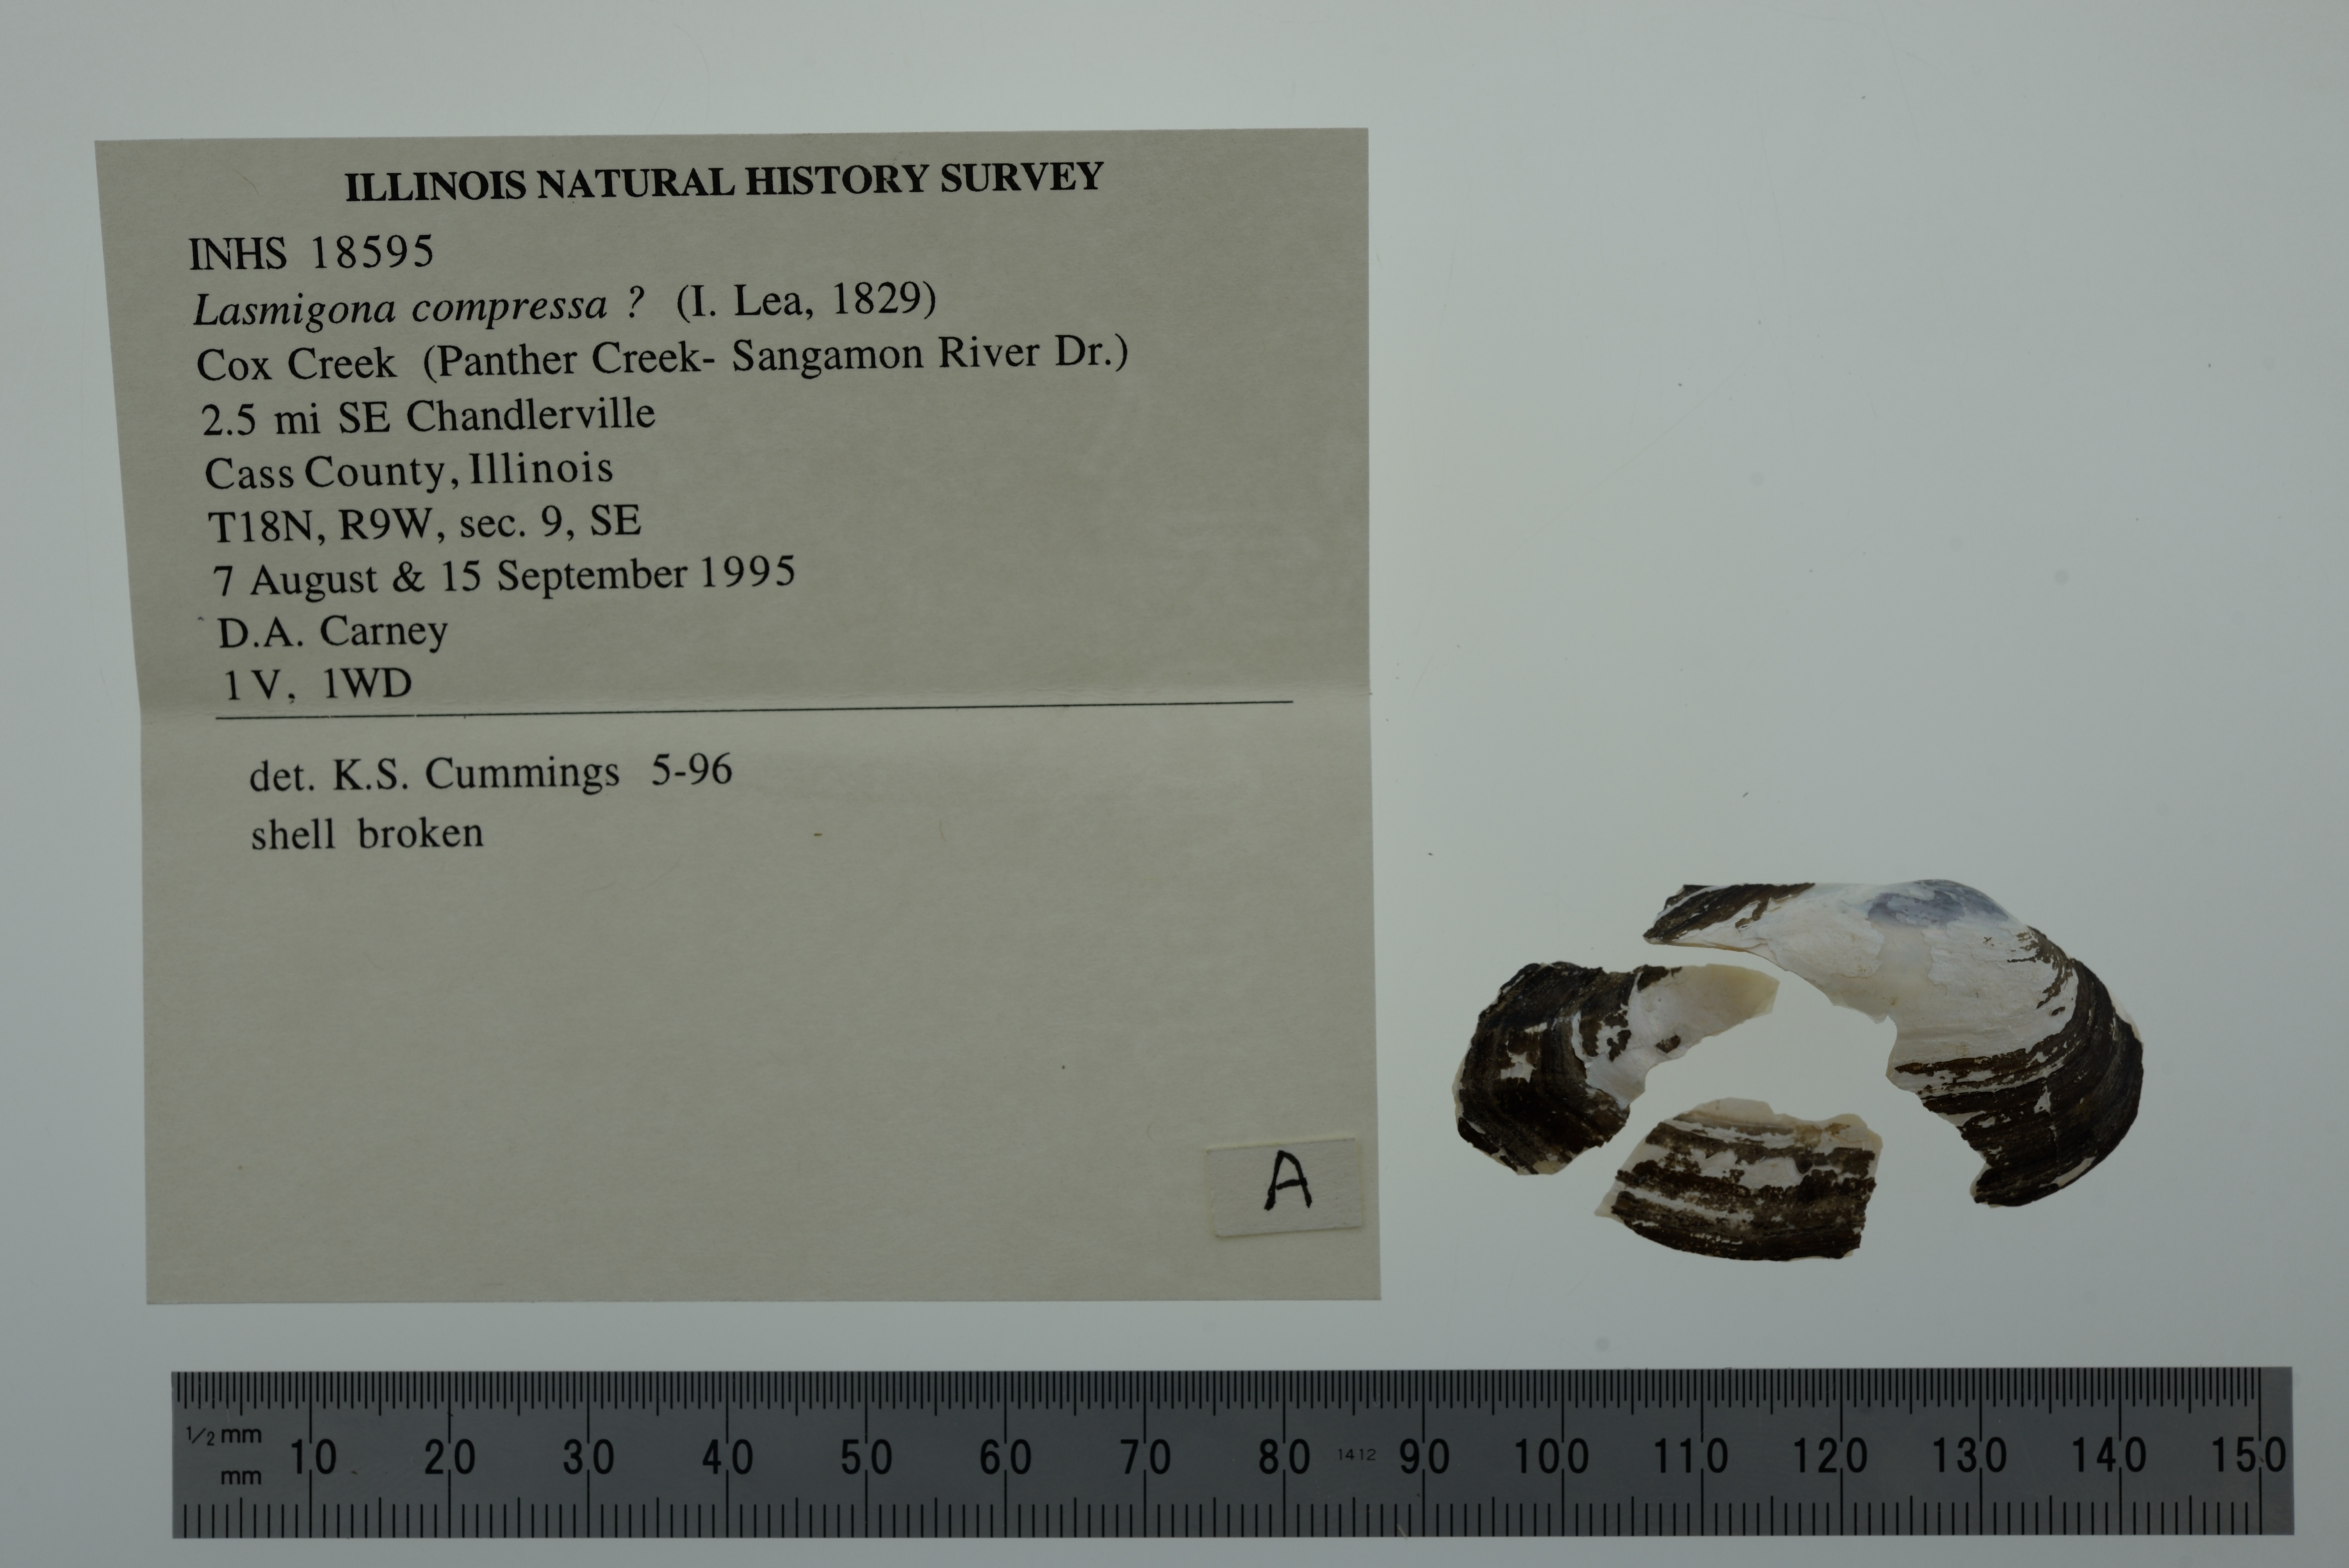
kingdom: Animalia
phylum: Mollusca
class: Bivalvia
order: Unionida
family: Unionidae
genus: Lasmigona
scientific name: Lasmigona compressa
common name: Creek heelsplitter
